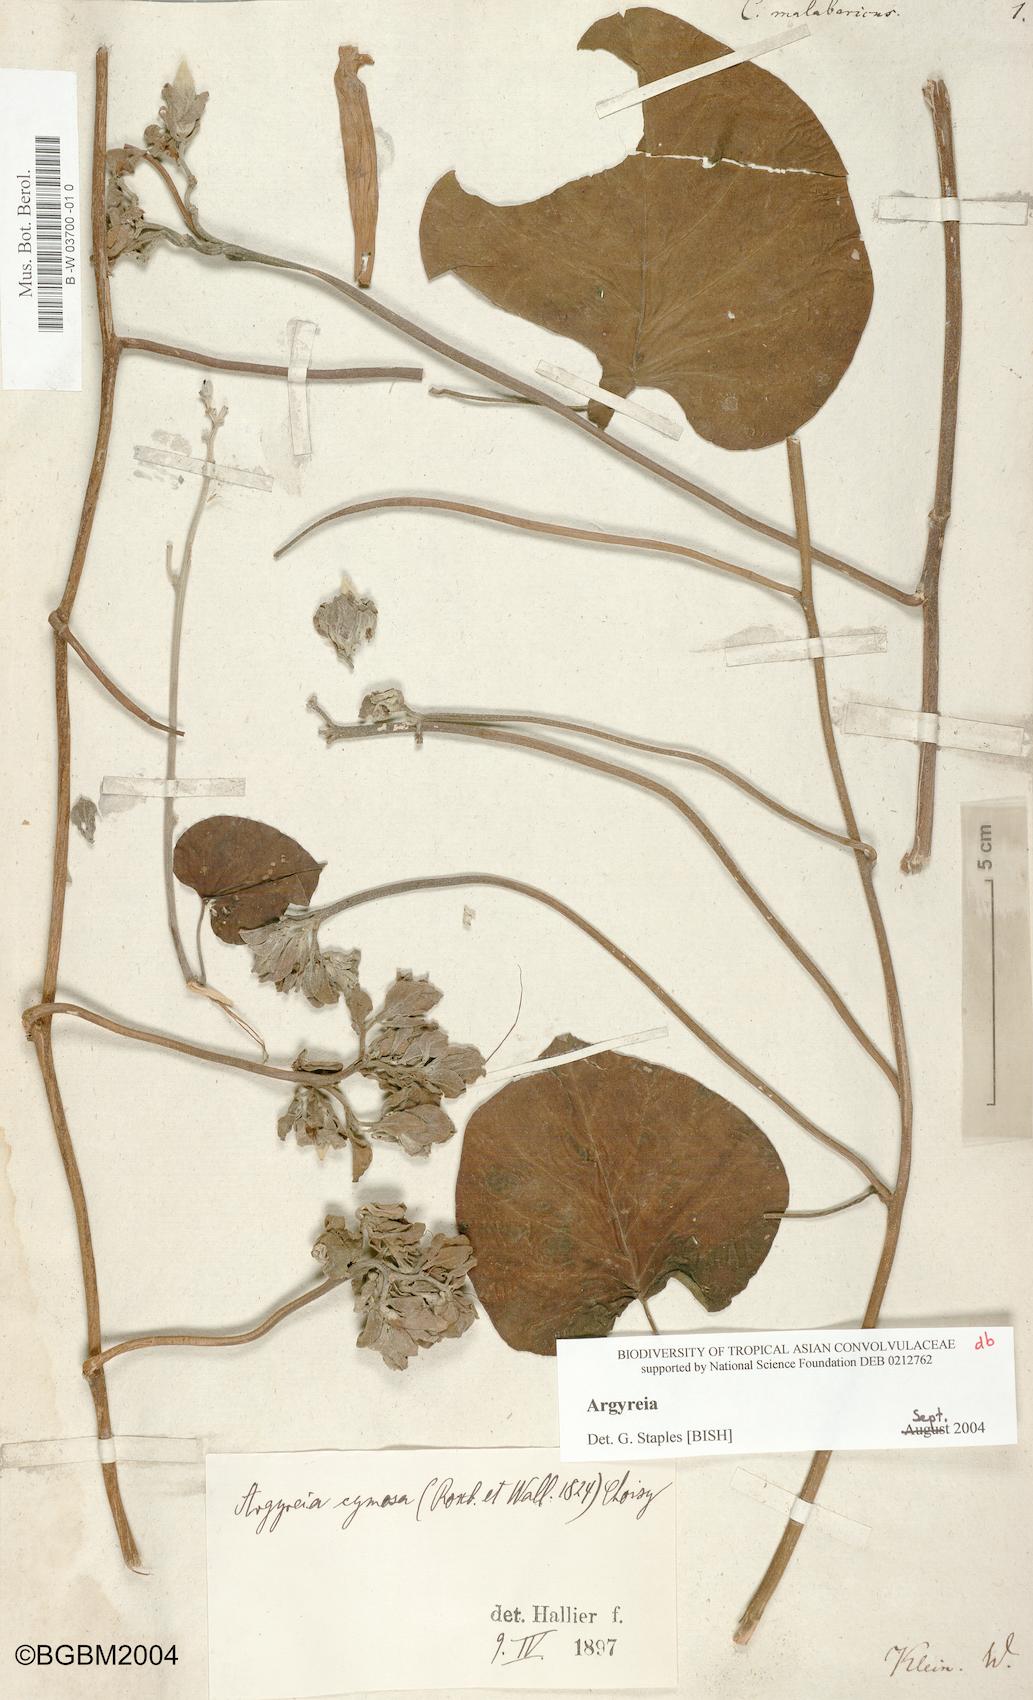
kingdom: Plantae
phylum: Tracheophyta
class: Magnoliopsida
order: Solanales
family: Convolvulaceae
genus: Convolvulus
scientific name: Convolvulus malabaricus
